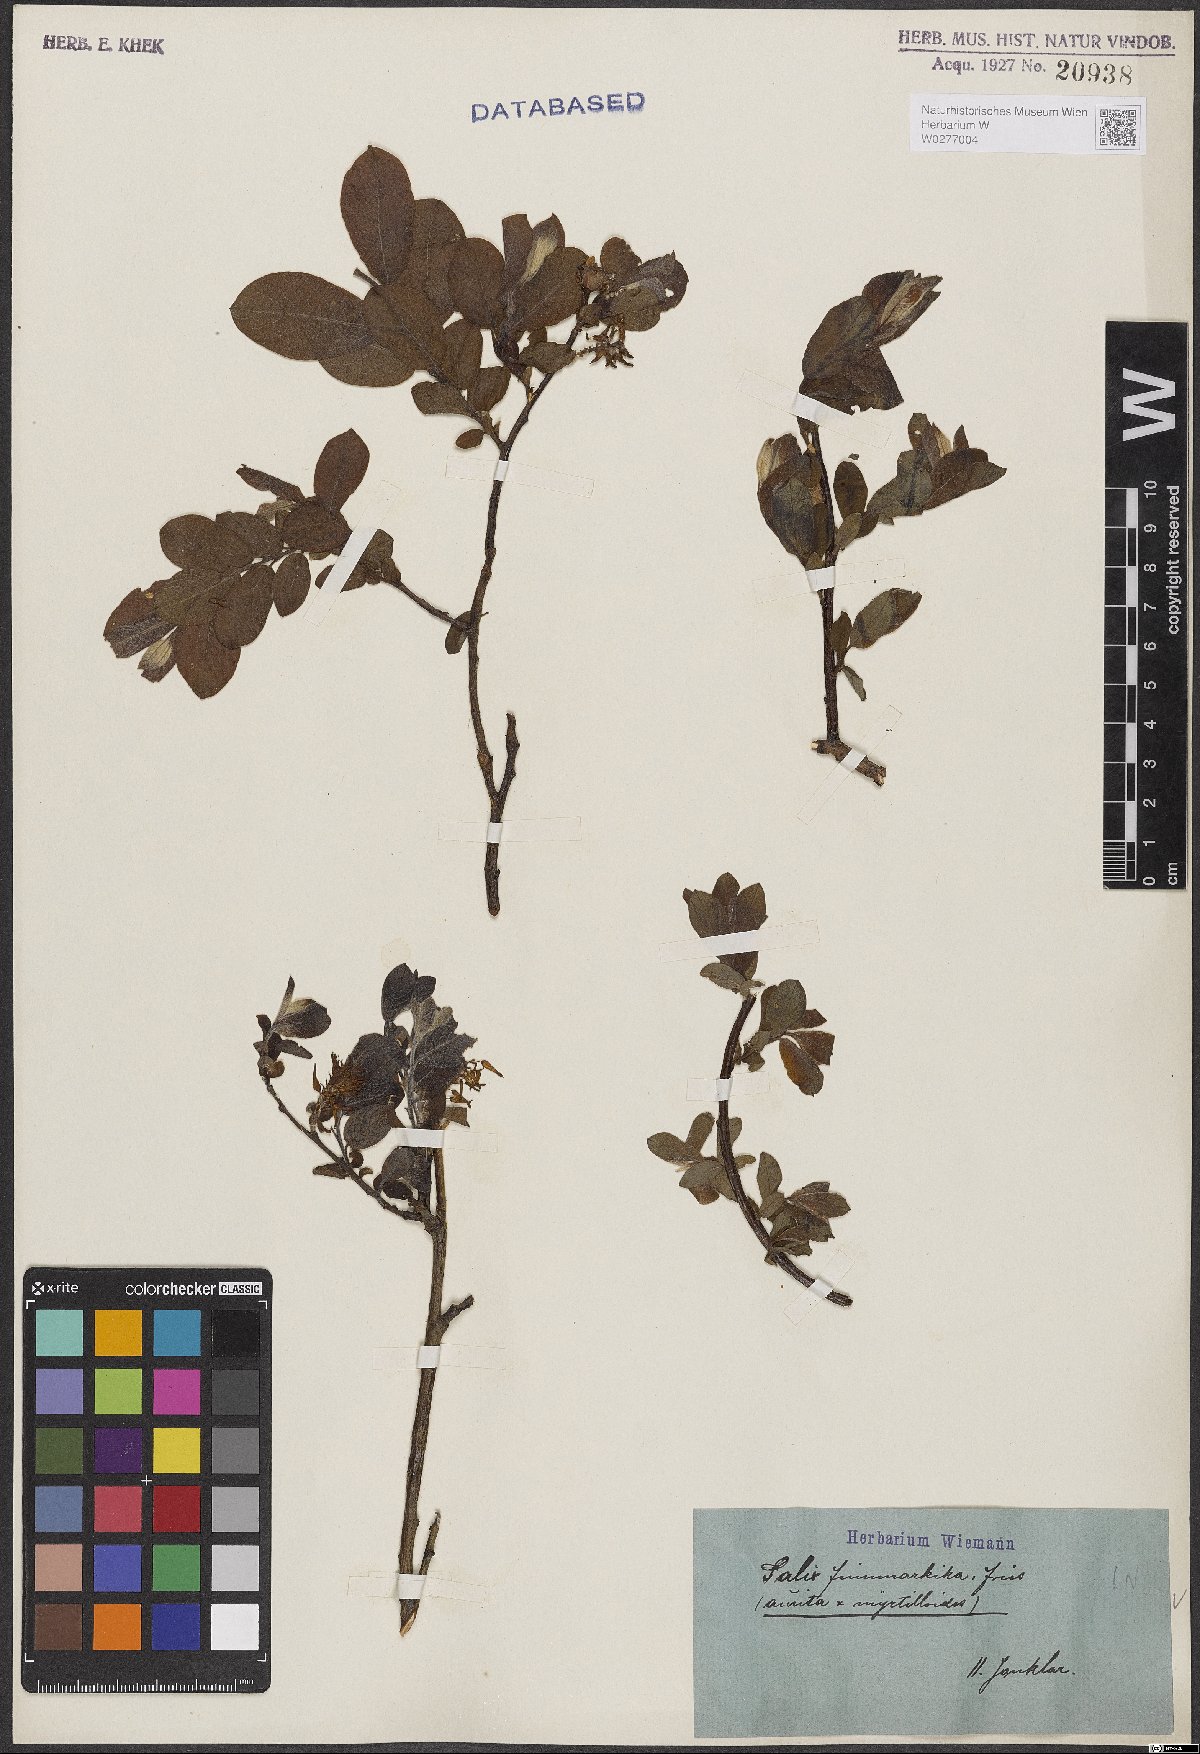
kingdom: Plantae
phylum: Tracheophyta
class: Magnoliopsida
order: Malpighiales
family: Salicaceae
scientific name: Salicaceae
